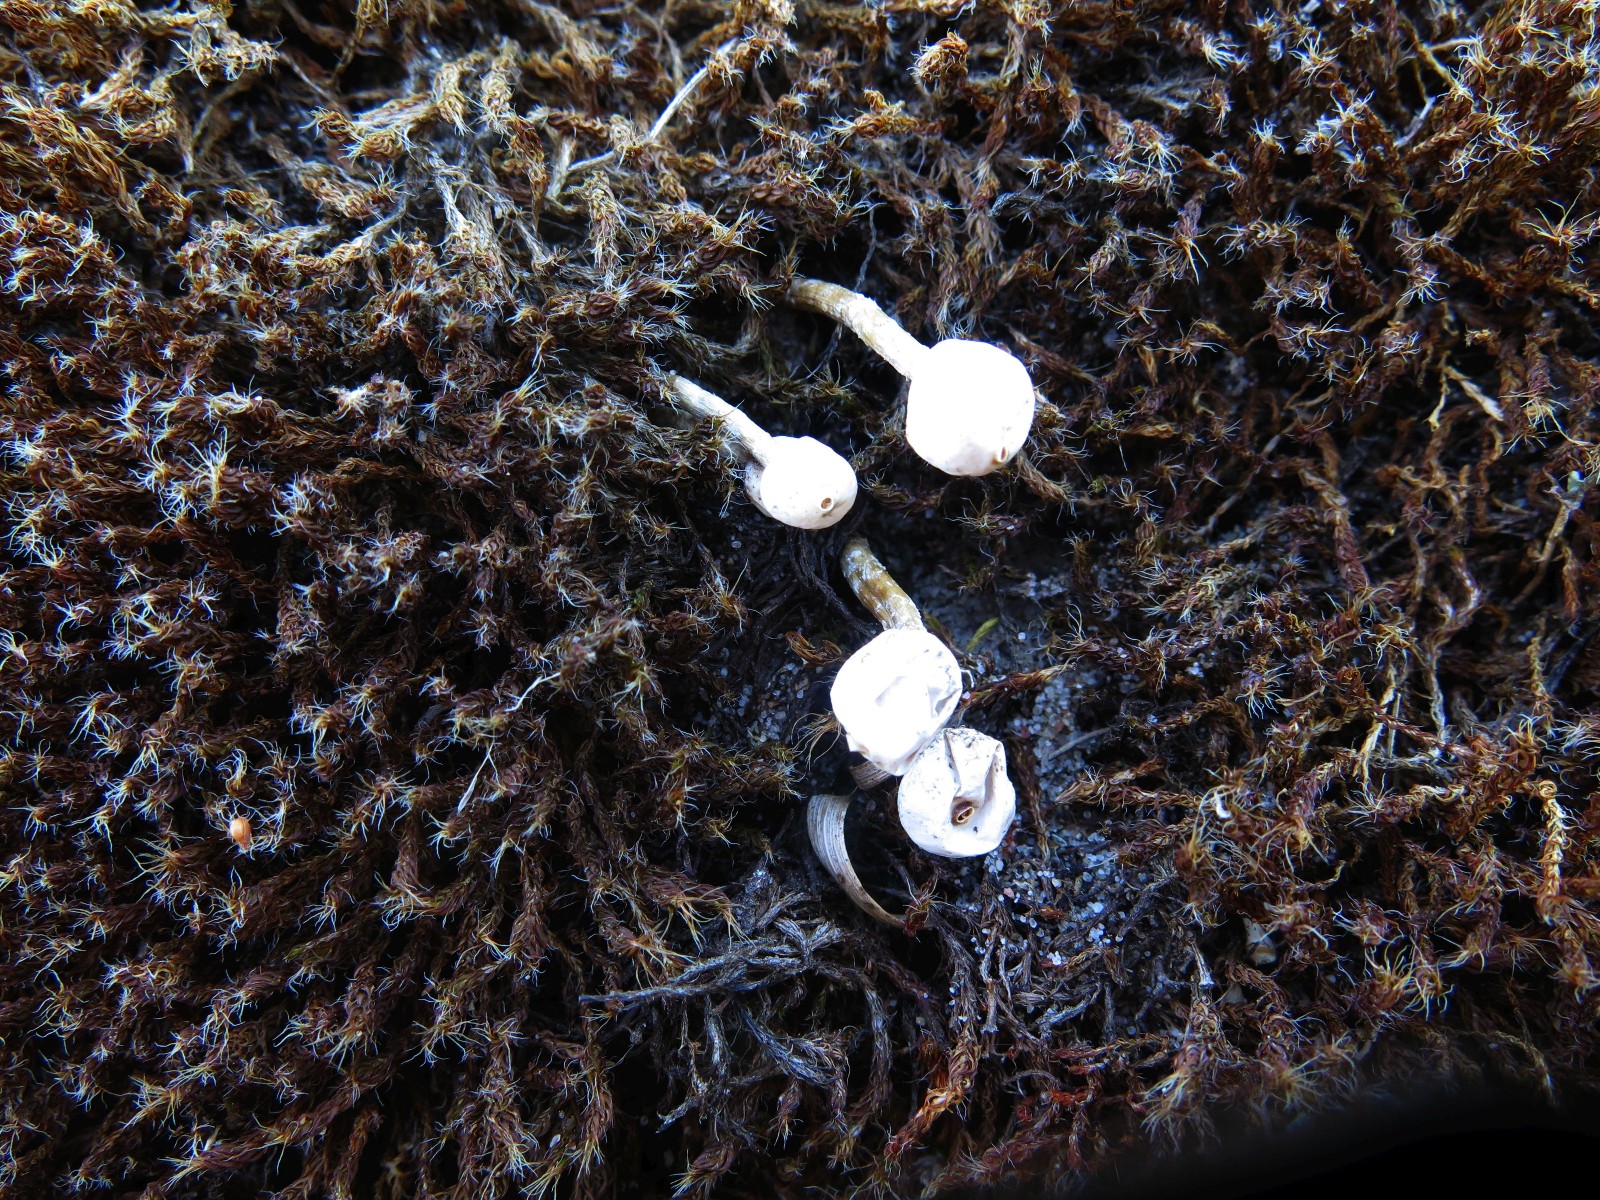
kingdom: Fungi
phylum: Basidiomycota
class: Agaricomycetes
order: Agaricales
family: Agaricaceae
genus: Tulostoma
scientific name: Tulostoma brumale
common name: vinter-stilkbovist
